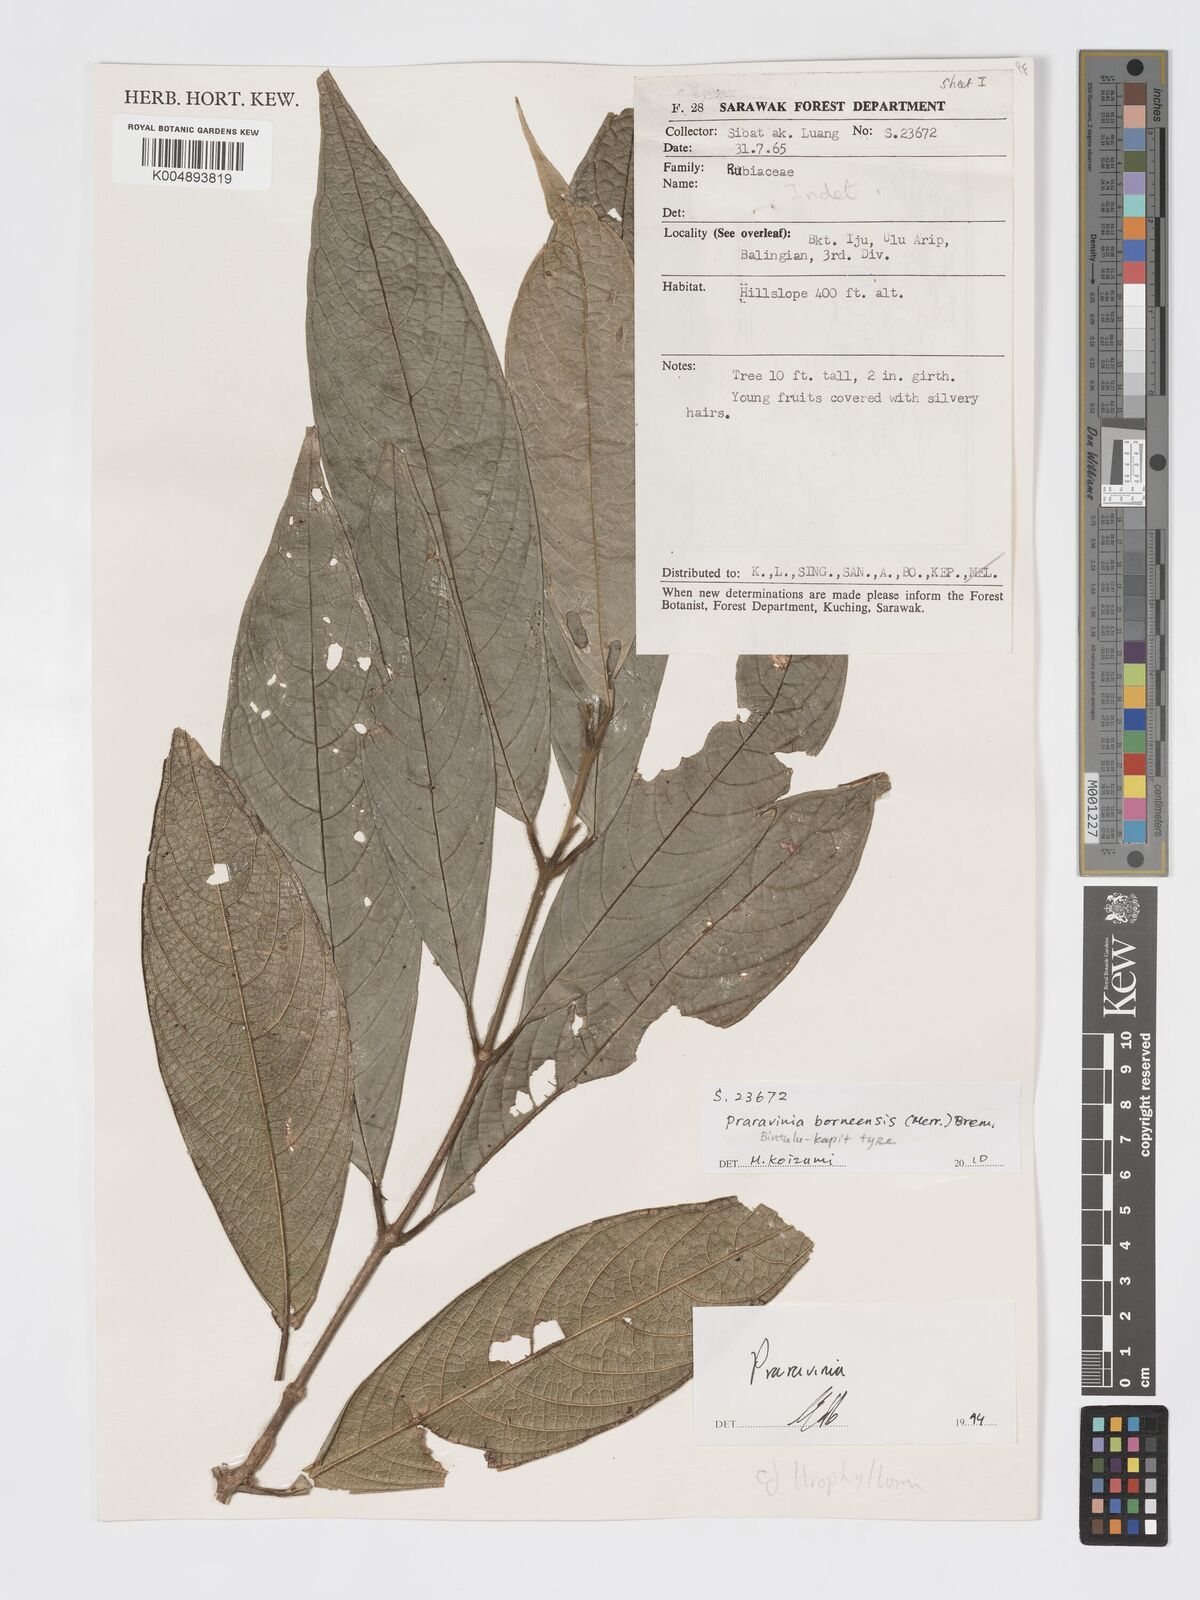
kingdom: Plantae
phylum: Tracheophyta
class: Magnoliopsida
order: Gentianales
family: Rubiaceae
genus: Praravinia
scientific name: Praravinia borneensis
